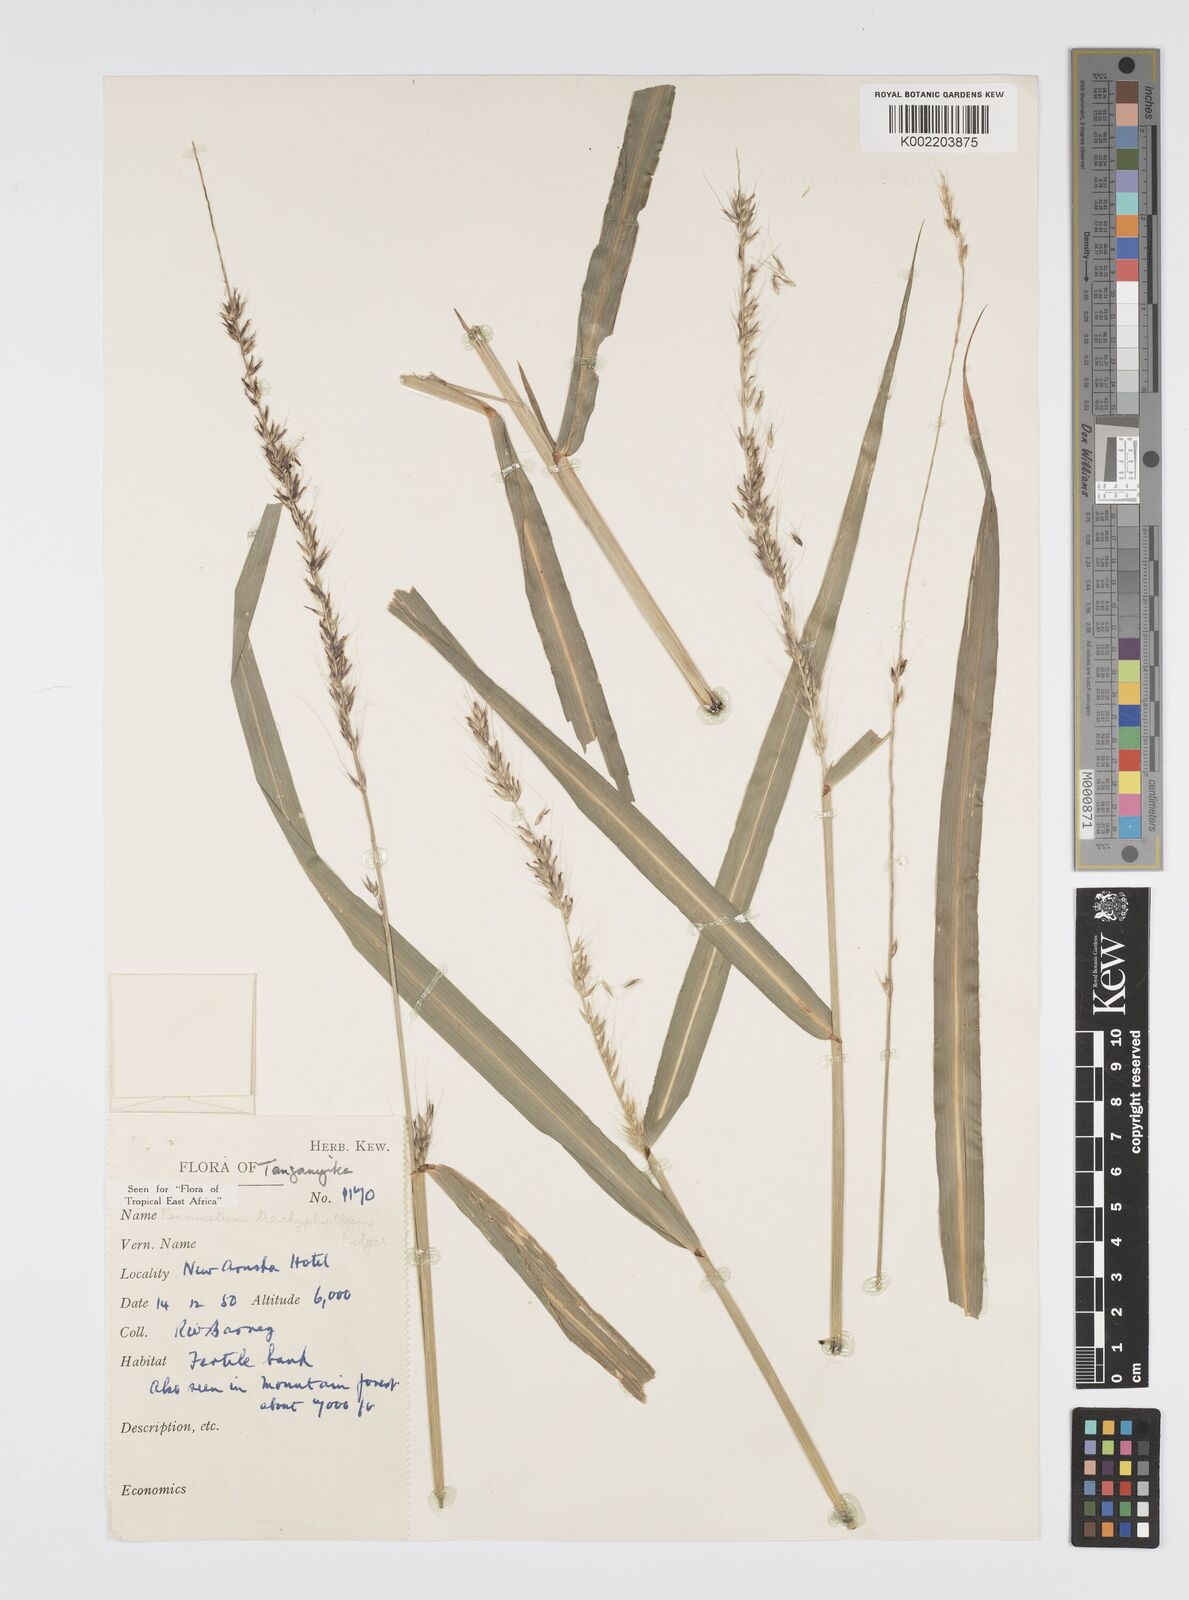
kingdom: Plantae
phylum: Tracheophyta
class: Liliopsida
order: Poales
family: Poaceae
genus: Cenchrus
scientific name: Cenchrus trachyphyllus
